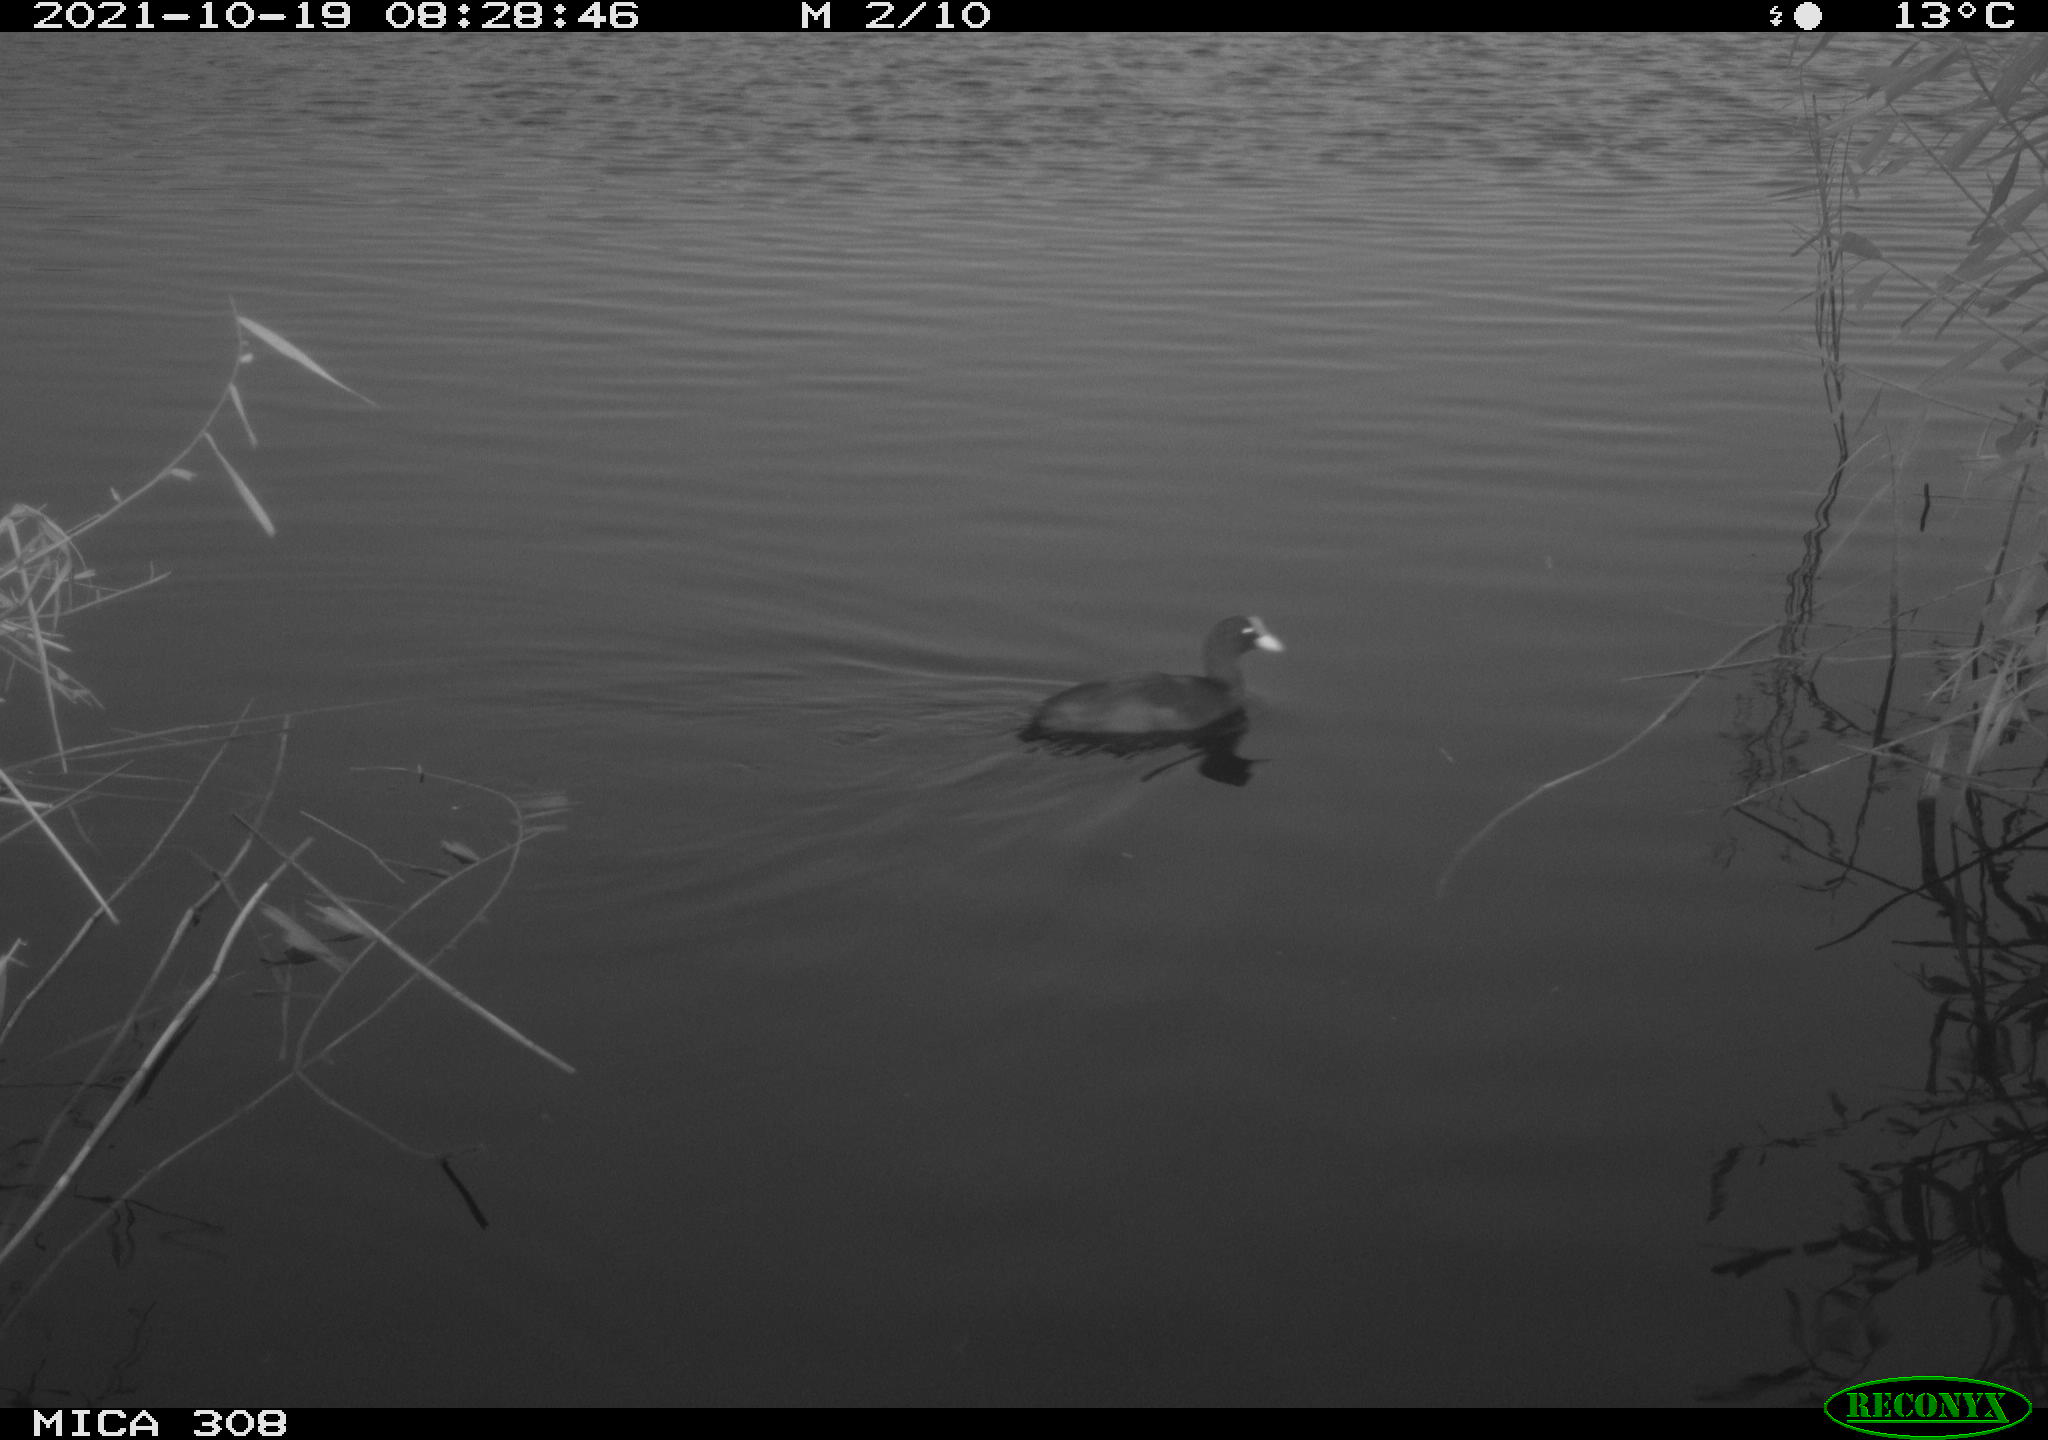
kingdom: Animalia
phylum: Chordata
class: Aves
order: Gruiformes
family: Rallidae
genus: Fulica
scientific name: Fulica atra
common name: Eurasian coot
